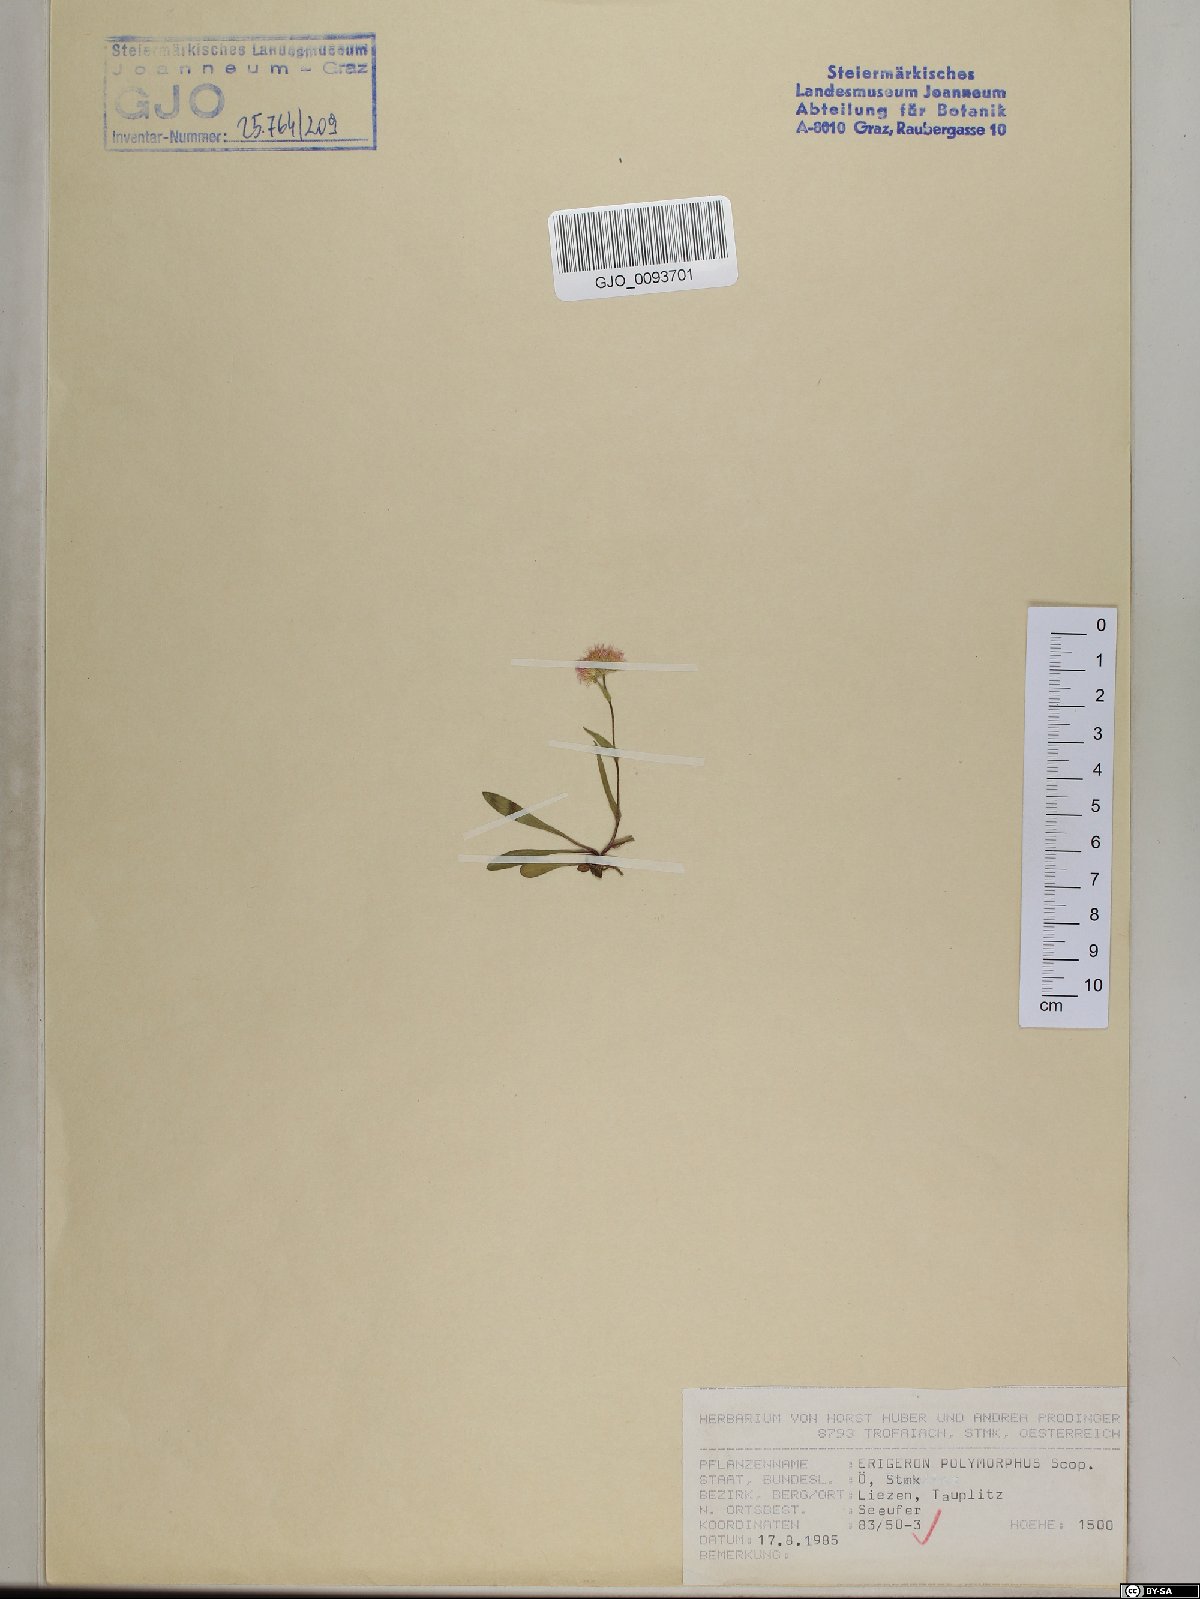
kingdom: Plantae
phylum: Tracheophyta
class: Magnoliopsida
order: Asterales
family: Asteraceae
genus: Erigeron
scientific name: Erigeron alpinus
